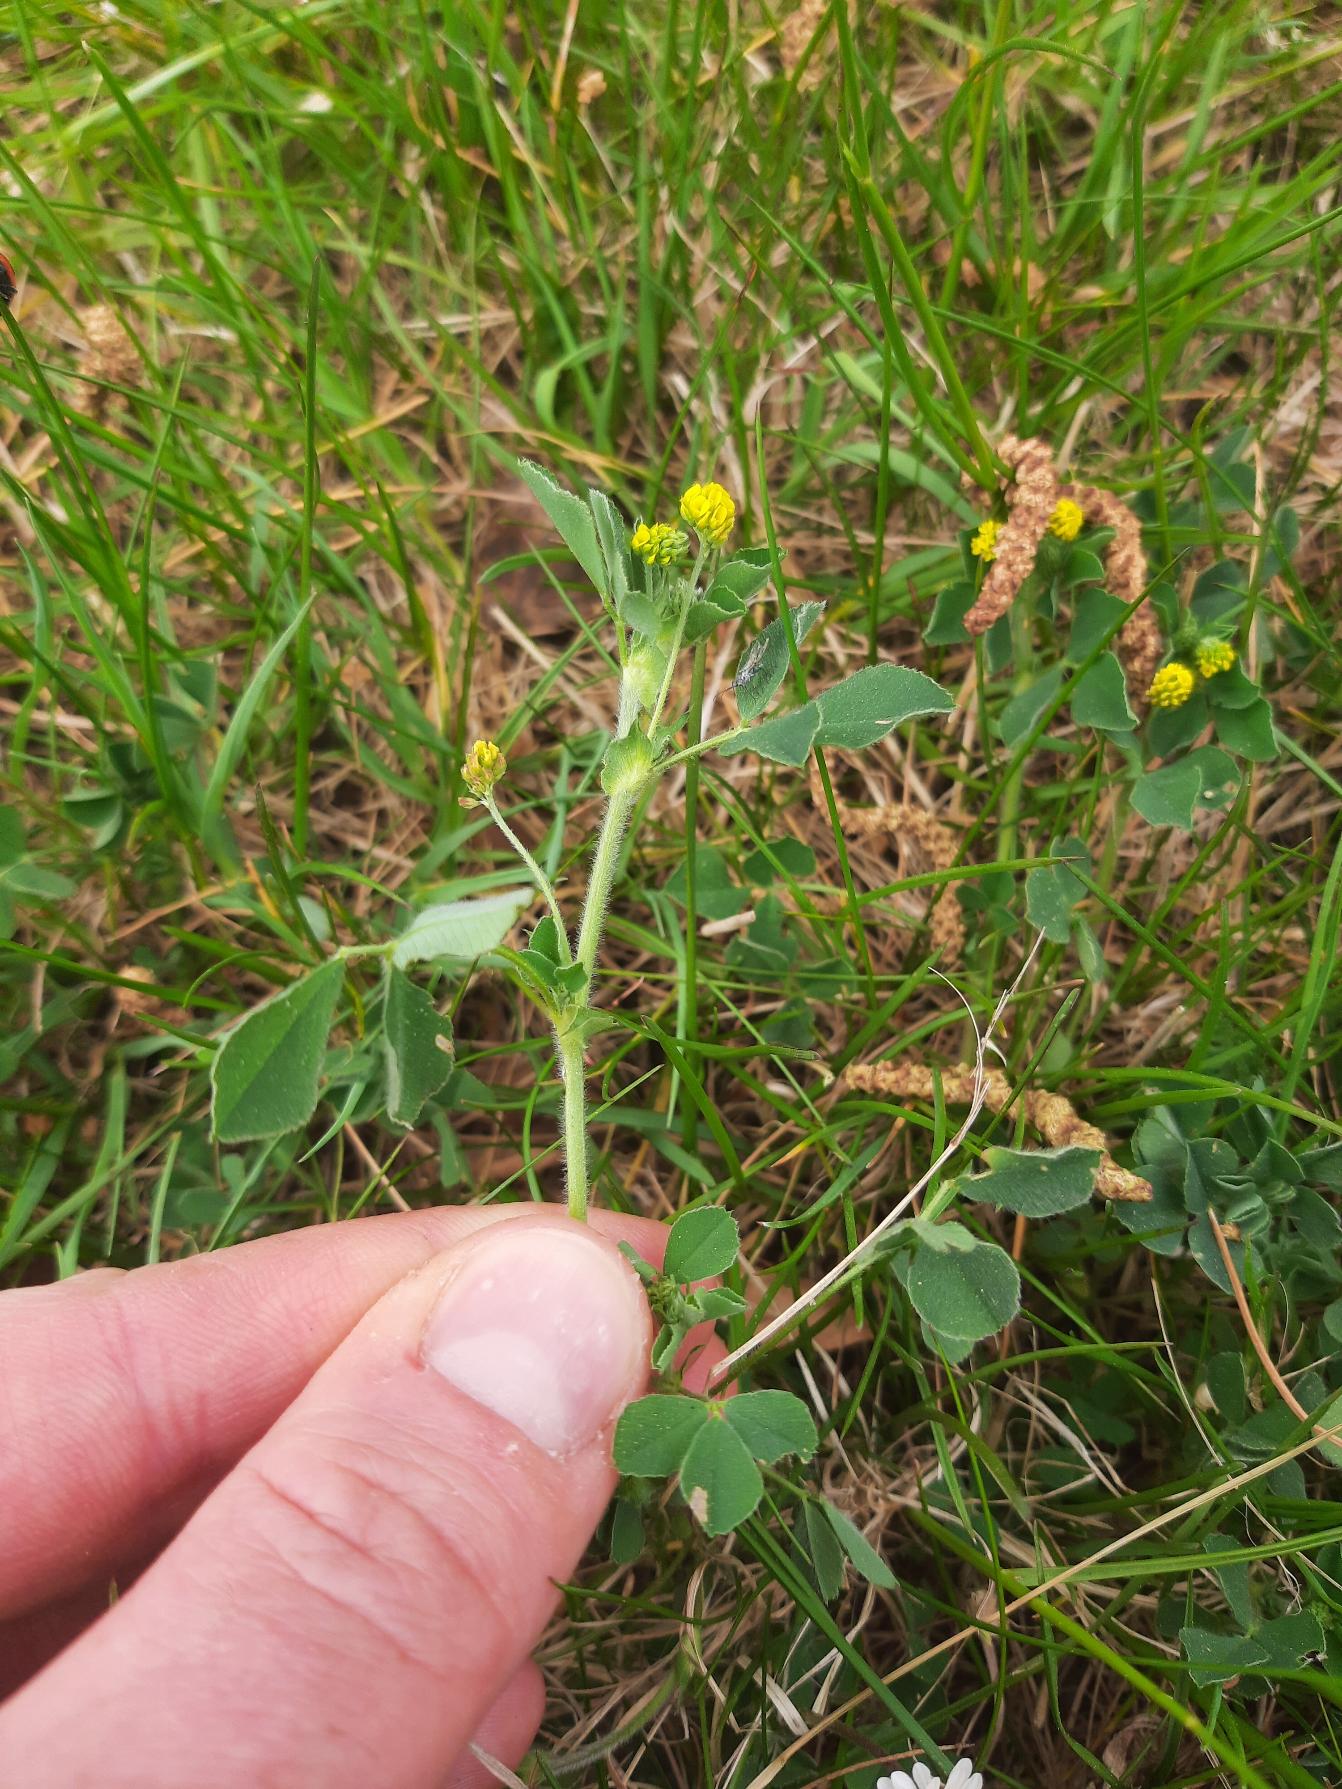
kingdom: Plantae
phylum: Tracheophyta
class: Magnoliopsida
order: Fabales
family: Fabaceae
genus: Medicago
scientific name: Medicago lupulina
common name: Humle-sneglebælg
